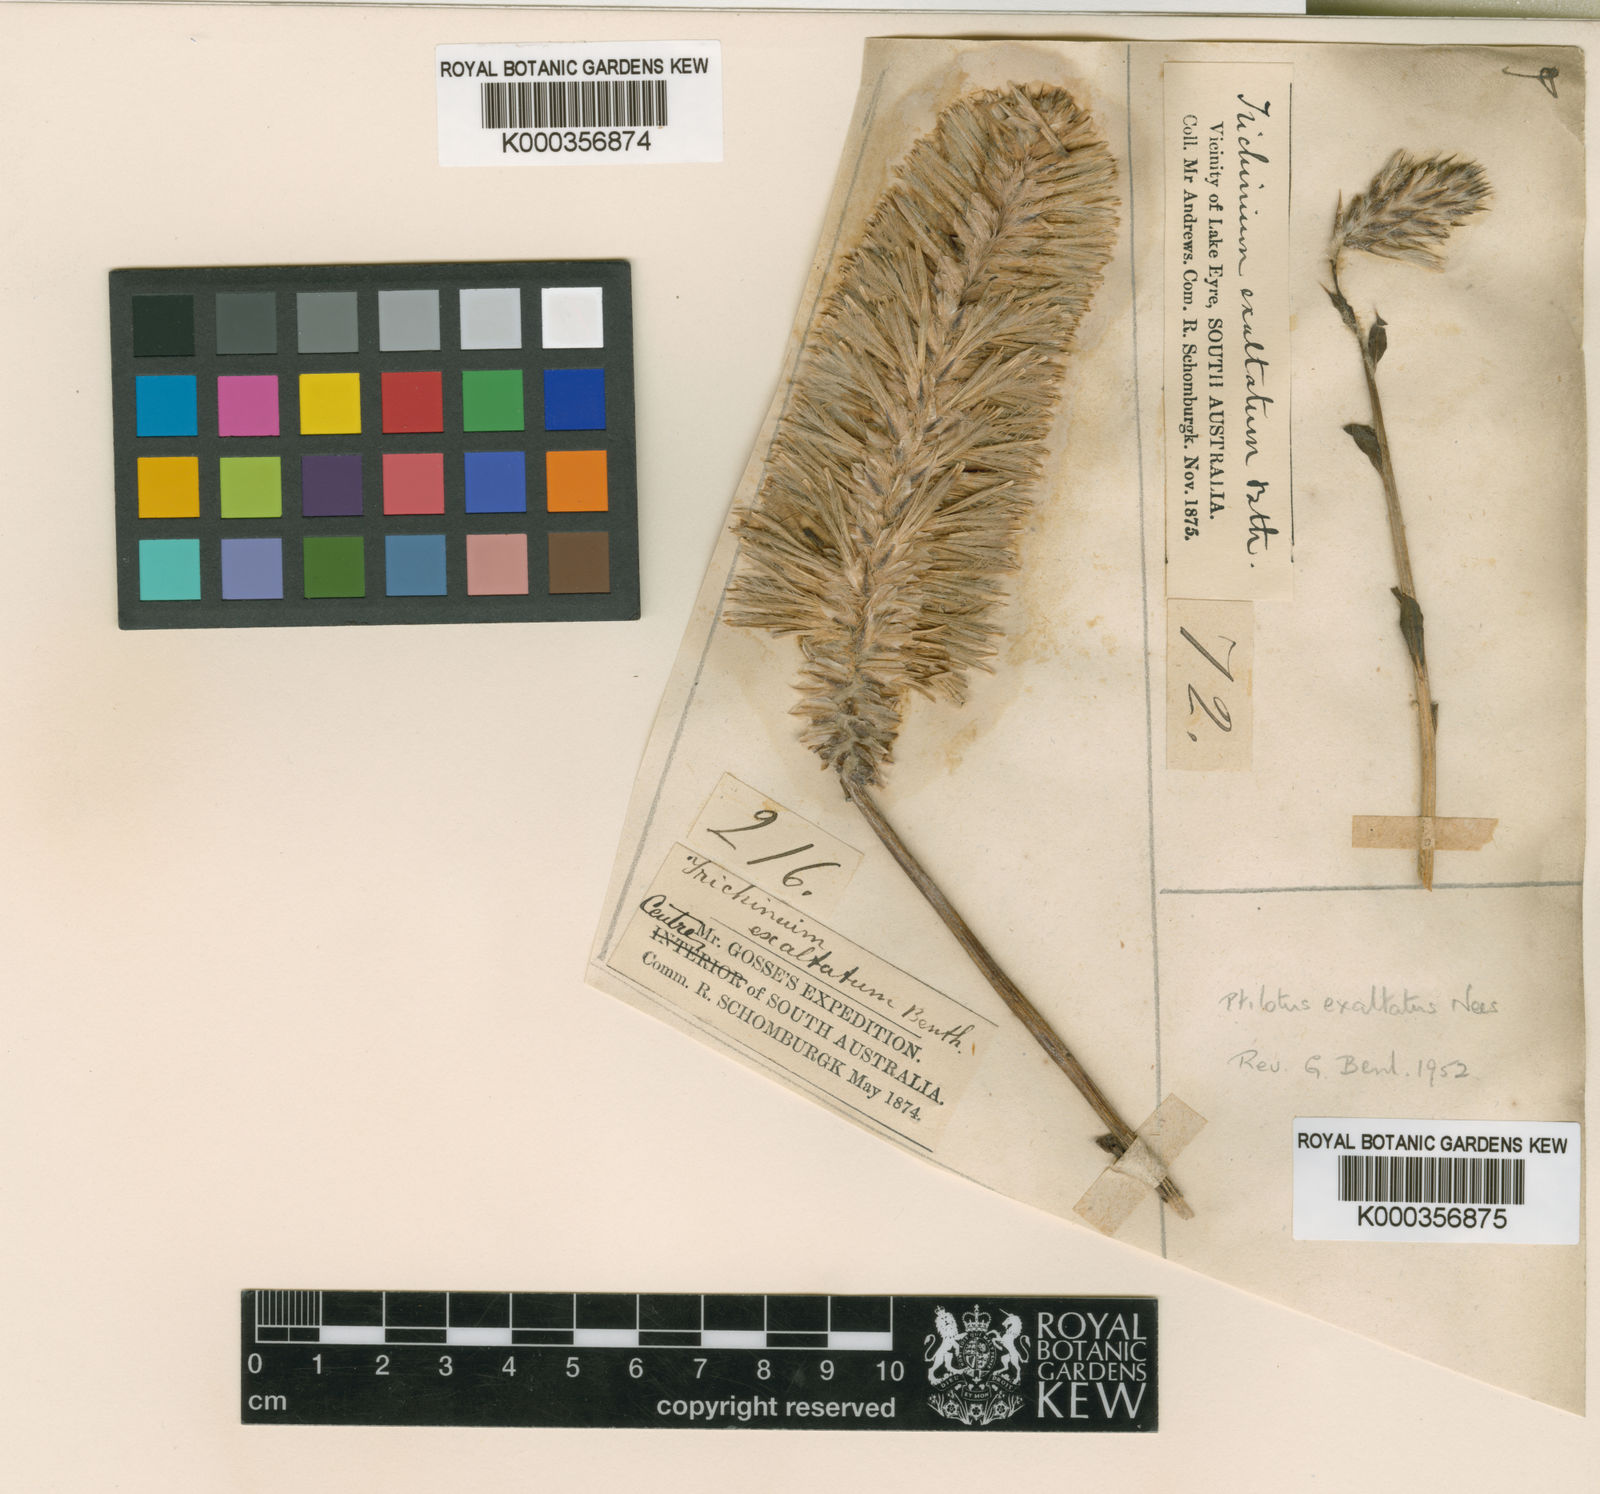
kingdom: Plantae
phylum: Tracheophyta
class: Magnoliopsida
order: Caryophyllales
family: Amaranthaceae
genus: Ptilotus
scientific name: Ptilotus exaltatus
